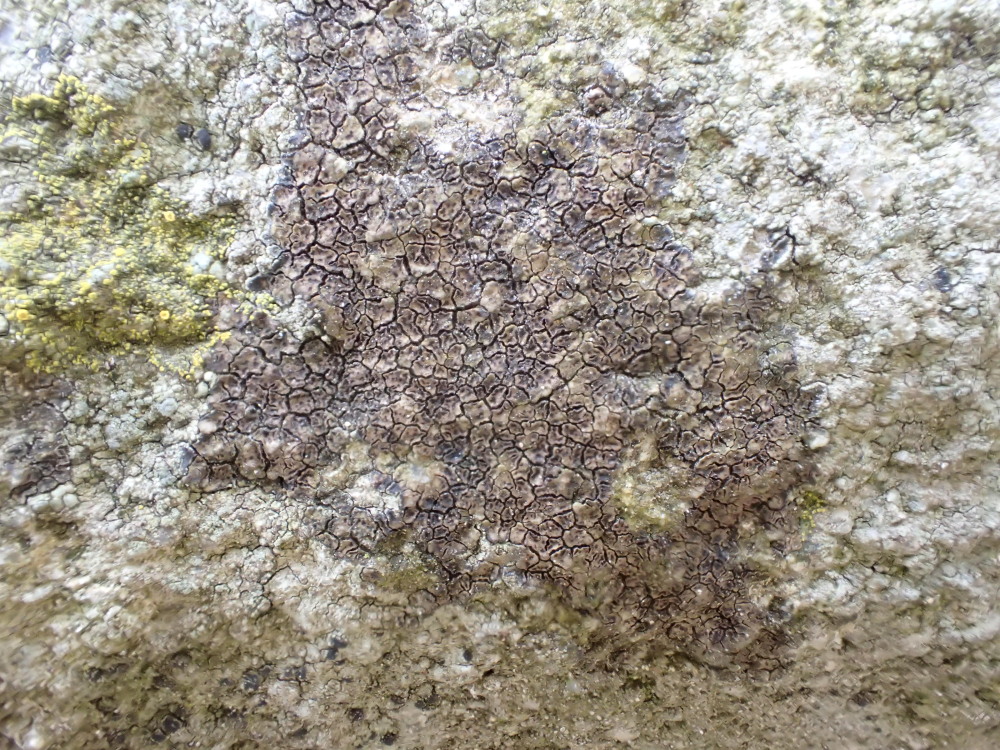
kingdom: Fungi
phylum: Ascomycota
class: Lecanoromycetes
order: Acarosporales
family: Acarosporaceae
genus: Acarospora
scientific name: Acarospora fuscata
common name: brun småsporelav
